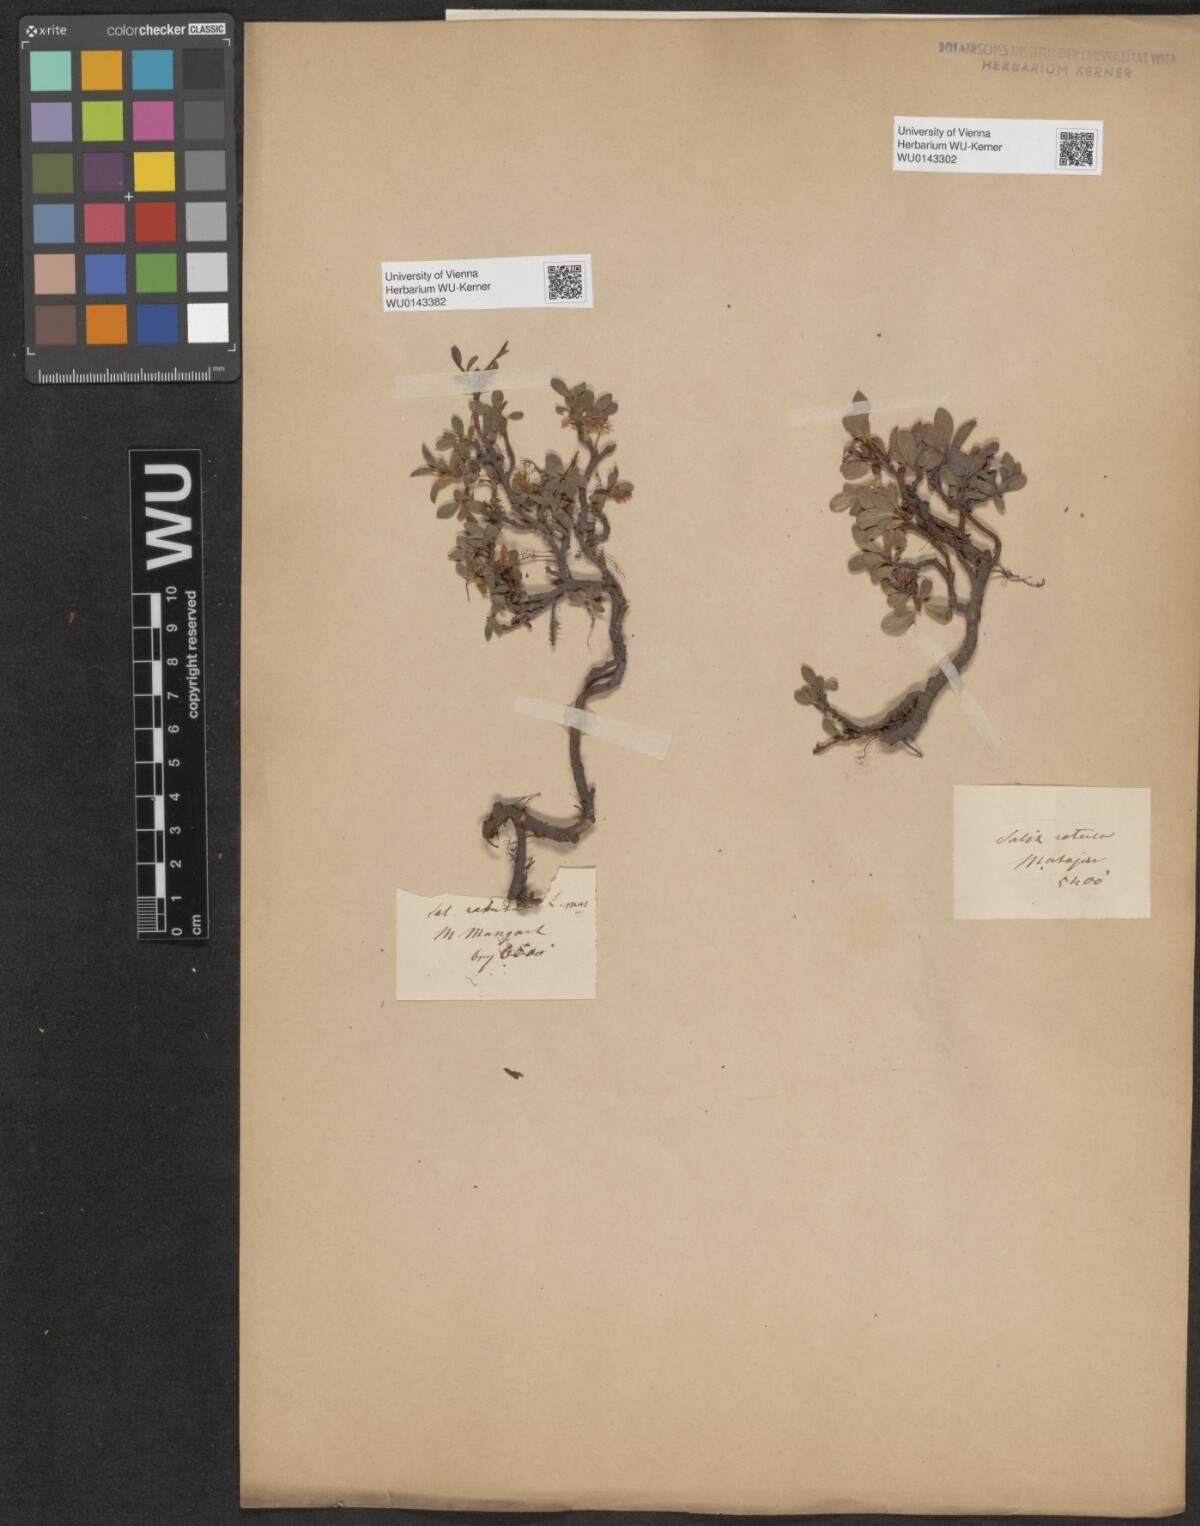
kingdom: Plantae
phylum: Tracheophyta
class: Magnoliopsida
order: Malpighiales
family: Salicaceae
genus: Salix
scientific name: Salix retusa
